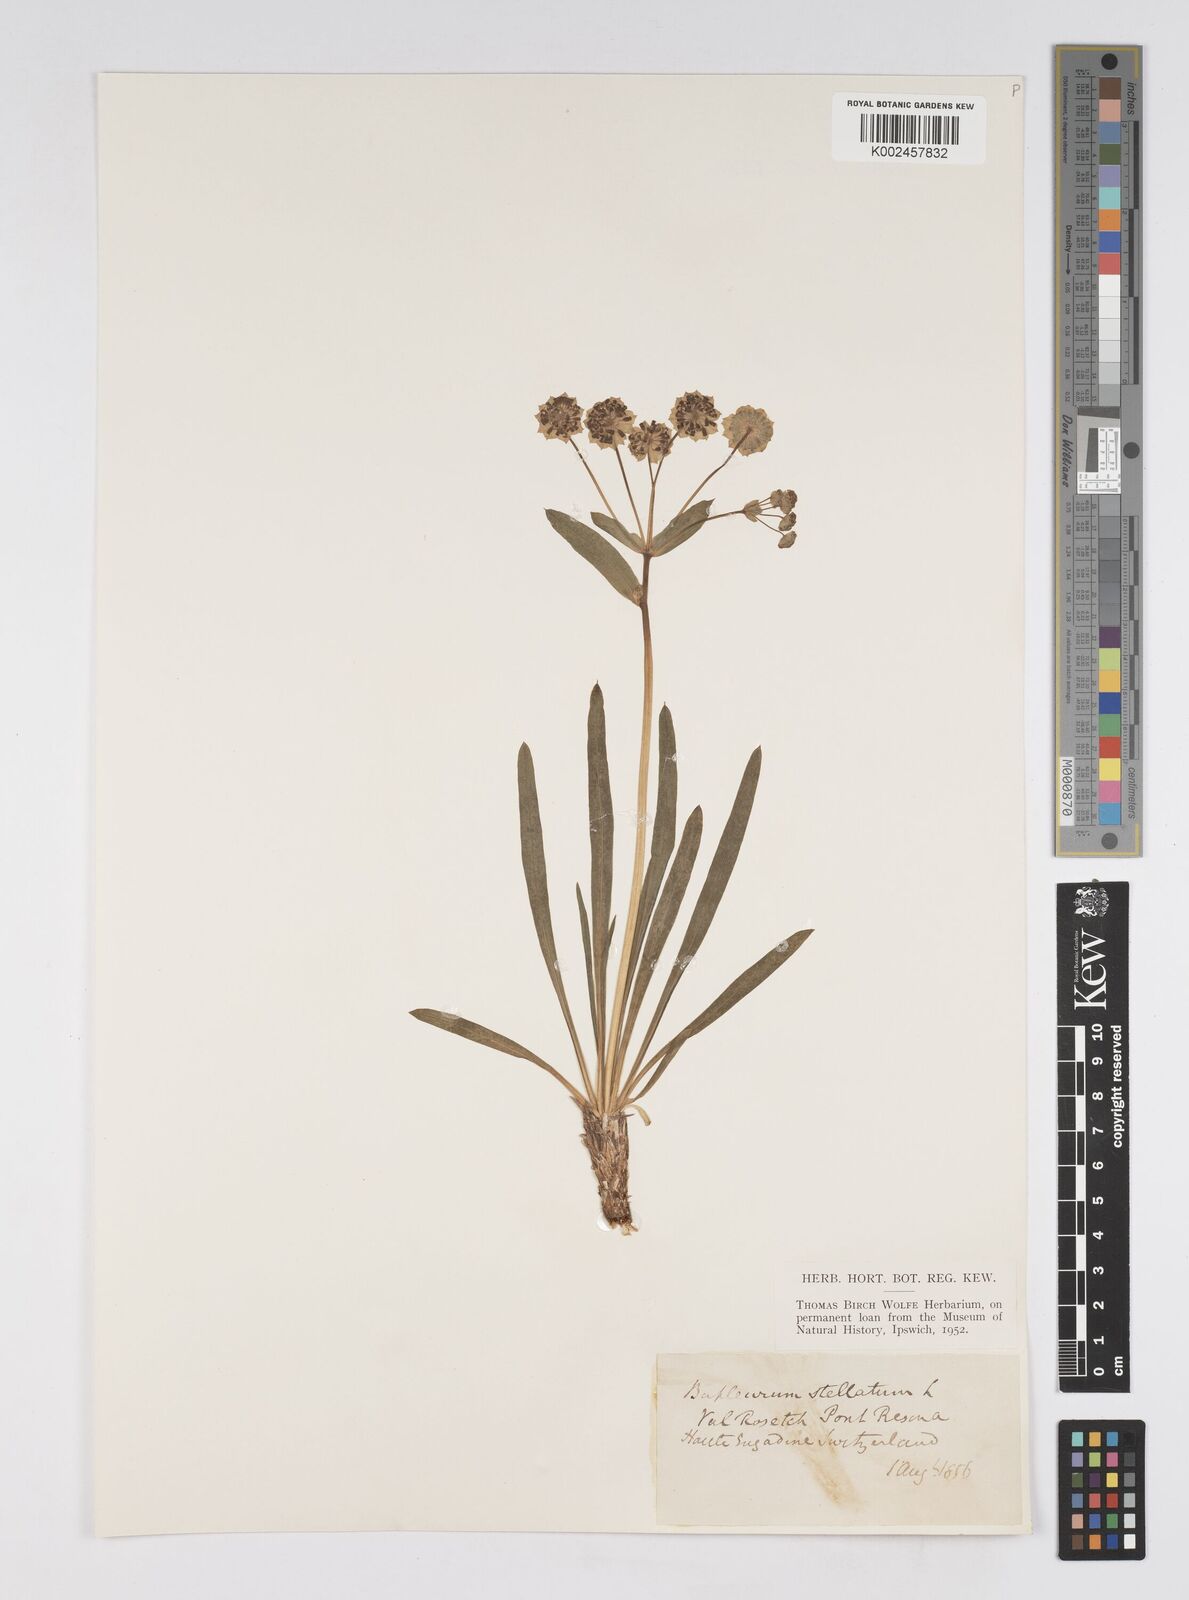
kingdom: Plantae
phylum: Tracheophyta
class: Magnoliopsida
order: Apiales
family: Apiaceae
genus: Bupleurum
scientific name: Bupleurum stellatum
